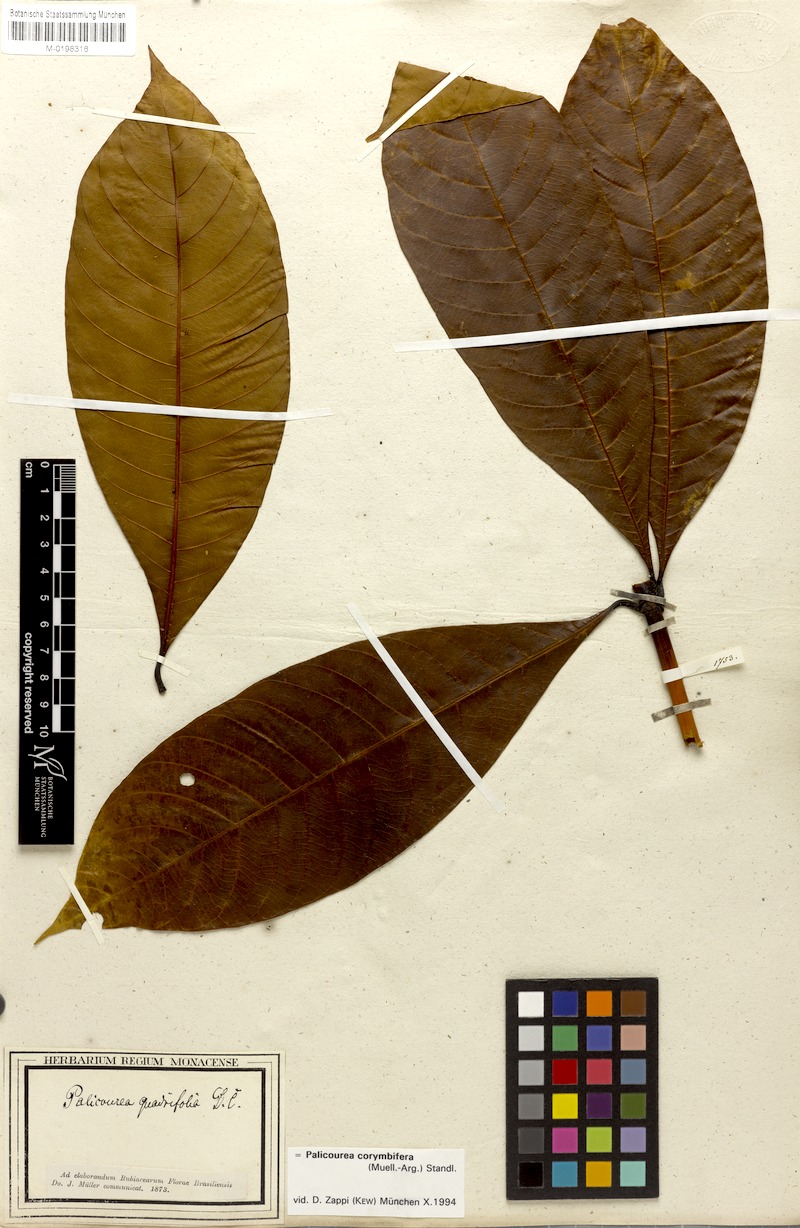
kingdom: Plantae
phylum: Tracheophyta
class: Magnoliopsida
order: Gentianales
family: Rubiaceae
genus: Palicourea
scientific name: Palicourea corymbifera
